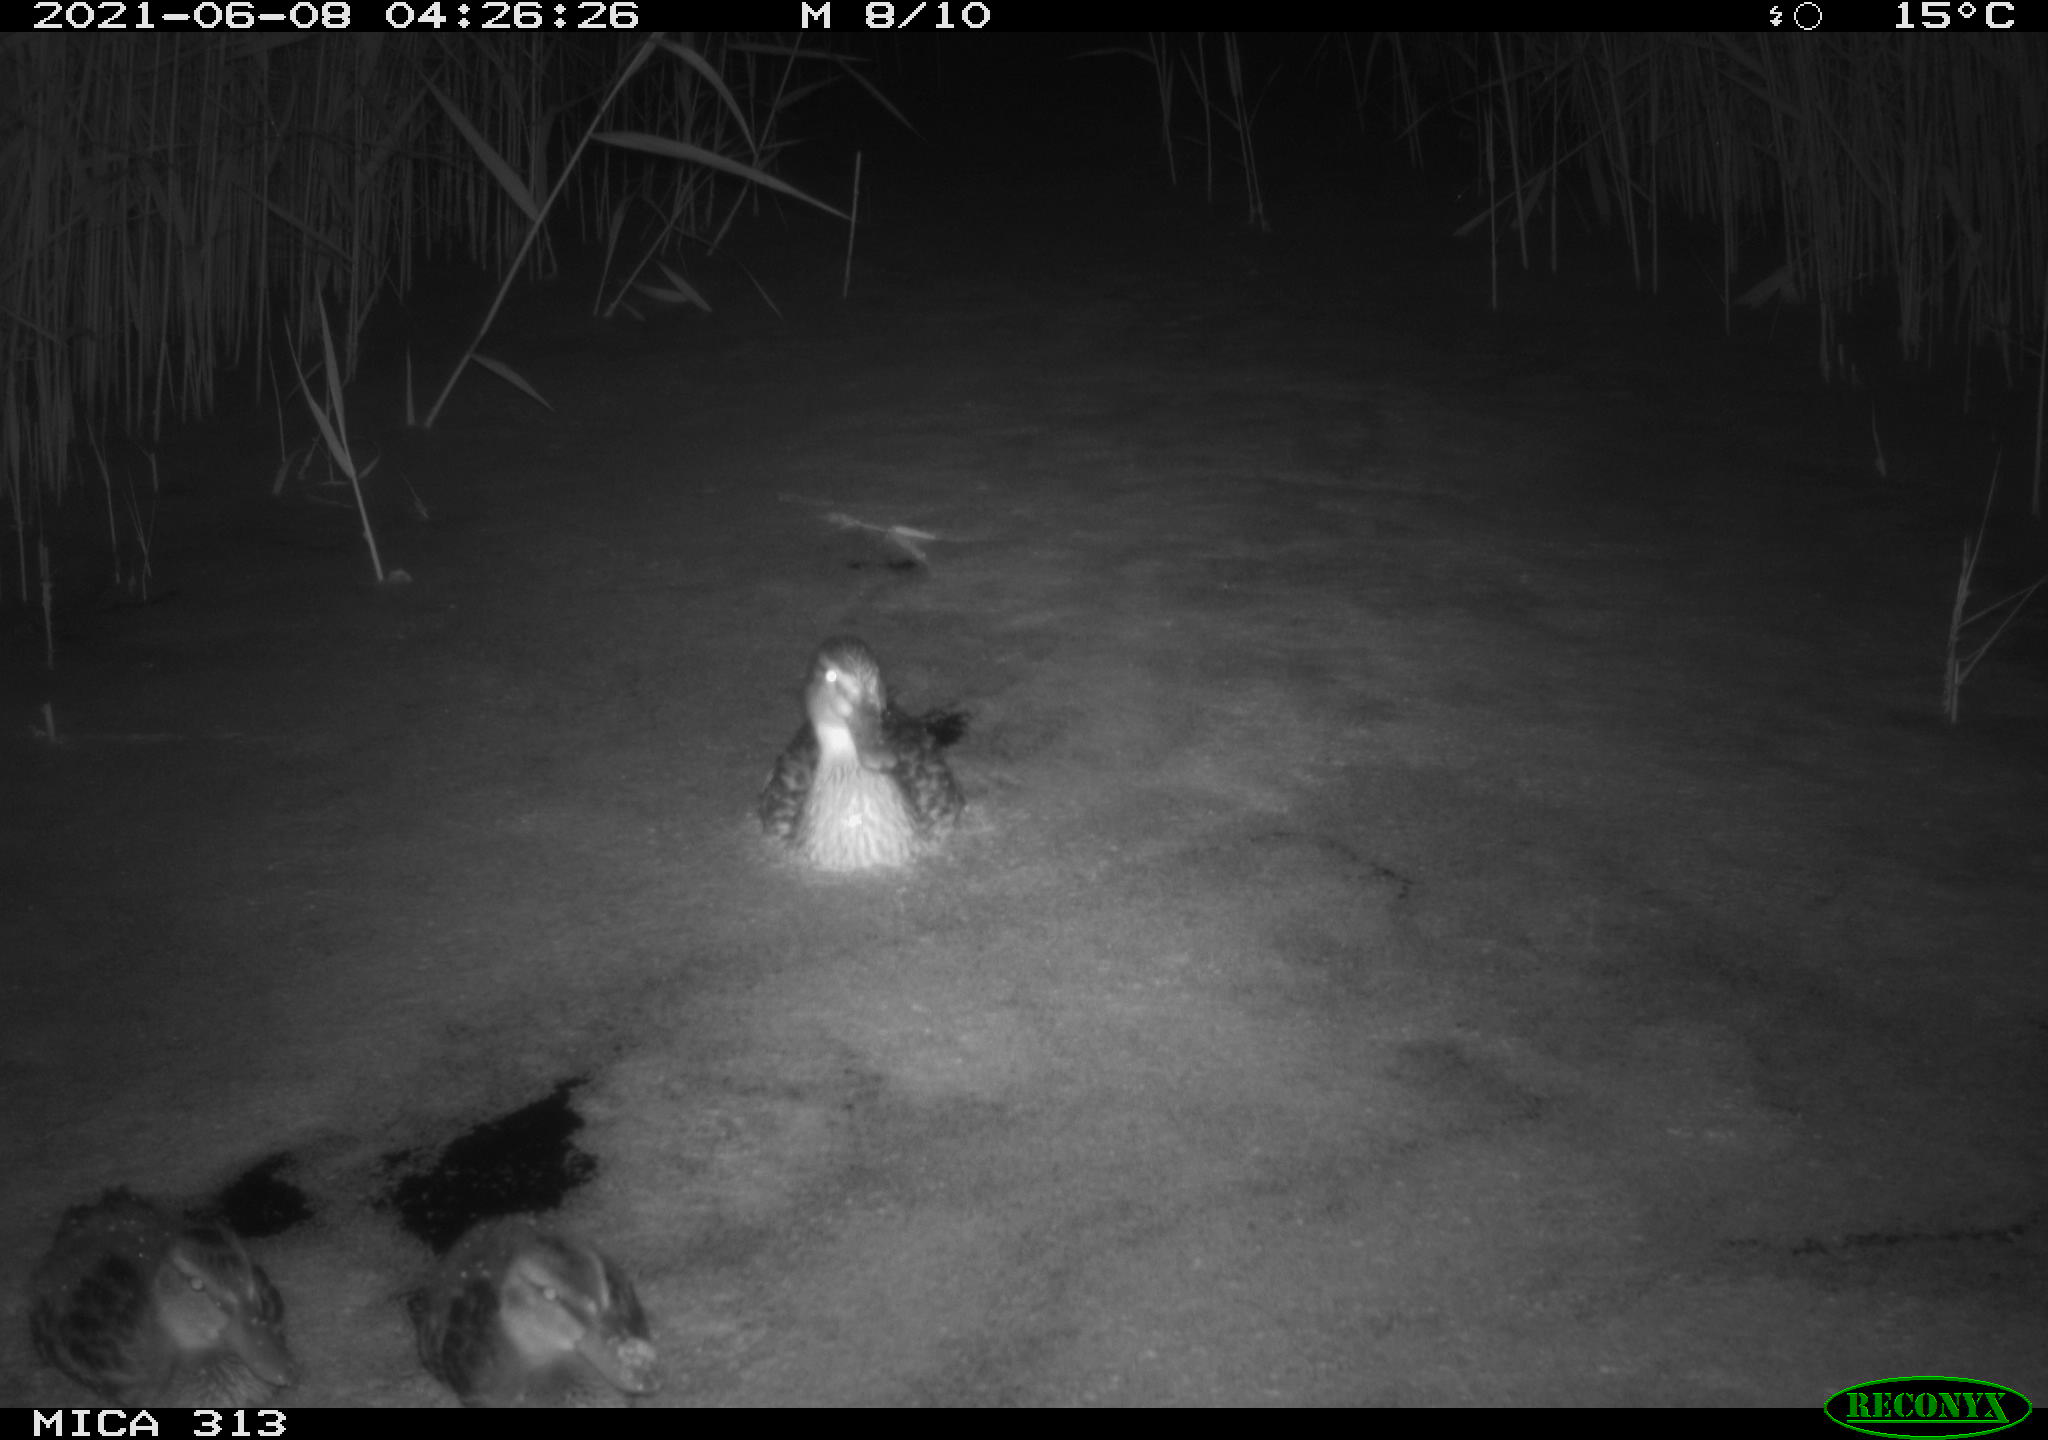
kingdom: Animalia
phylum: Chordata
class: Aves
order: Gruiformes
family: Rallidae
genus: Fulica
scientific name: Fulica atra
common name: Eurasian coot
